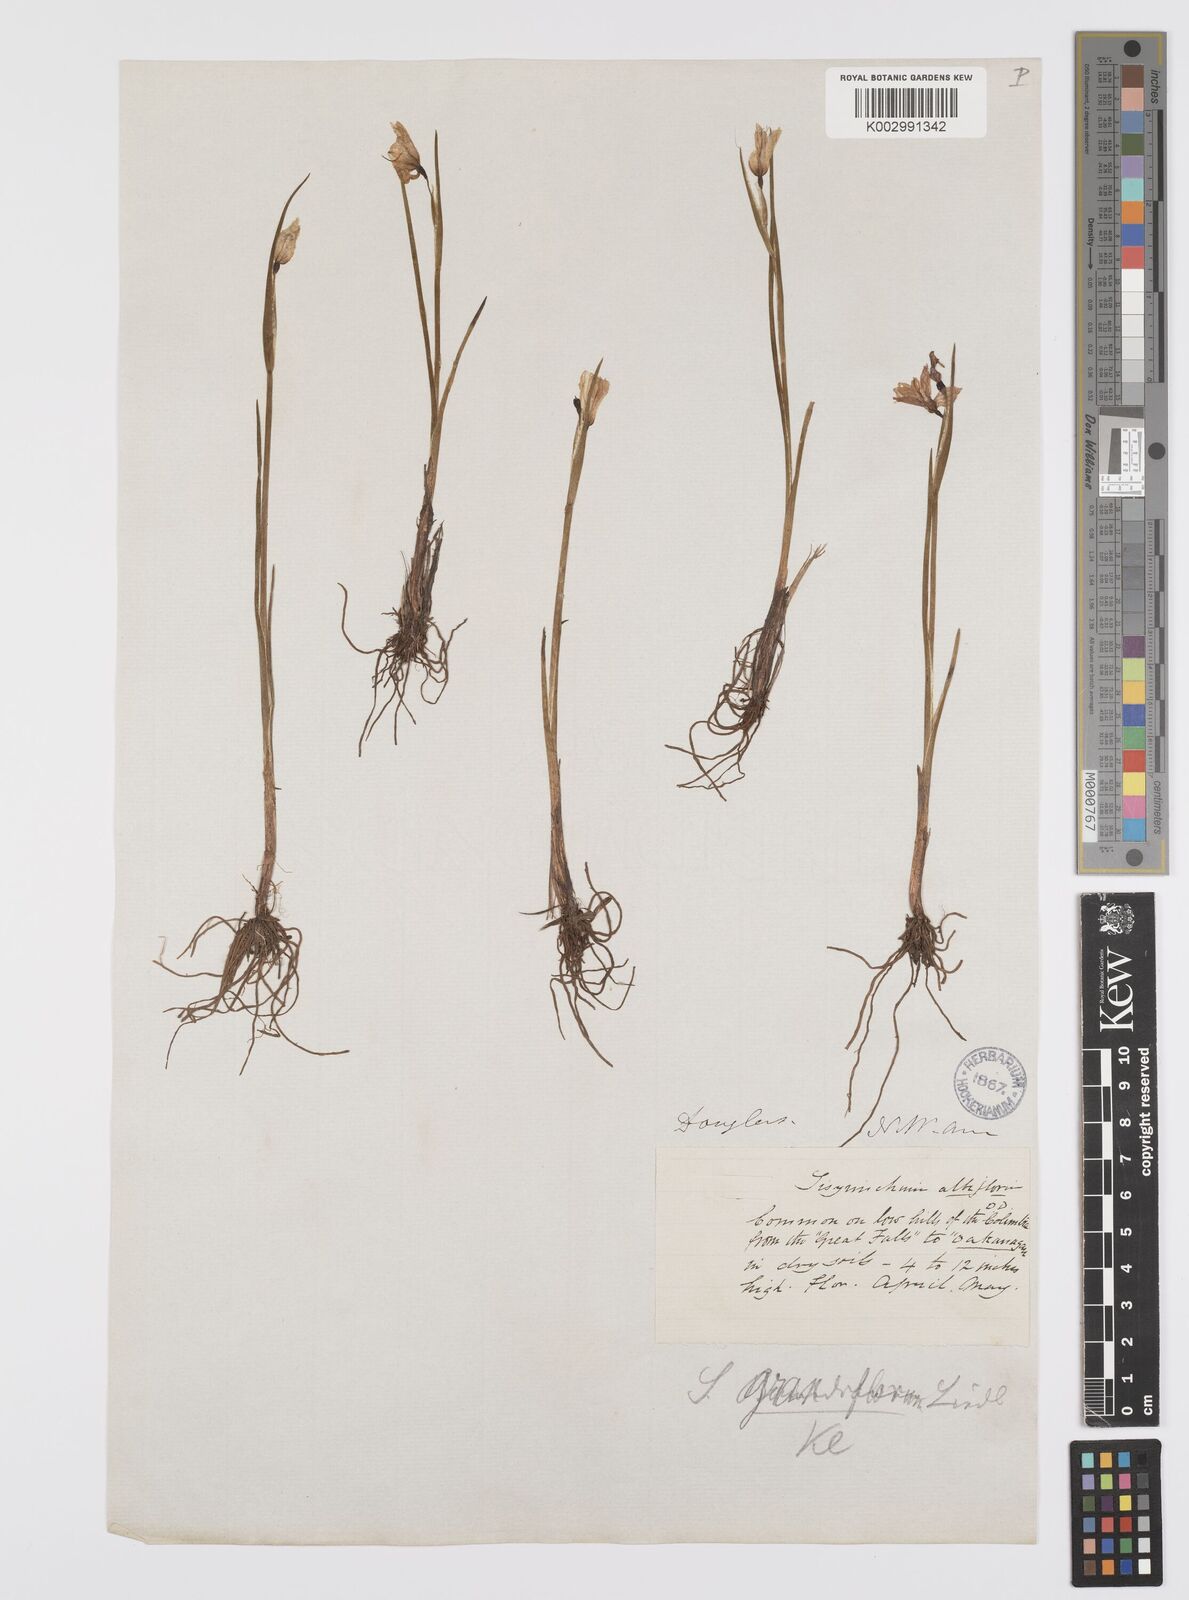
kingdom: Plantae
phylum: Tracheophyta
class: Liliopsida
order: Asparagales
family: Iridaceae
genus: Olsynium
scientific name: Olsynium douglasii
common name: Douglas' grasswidow
